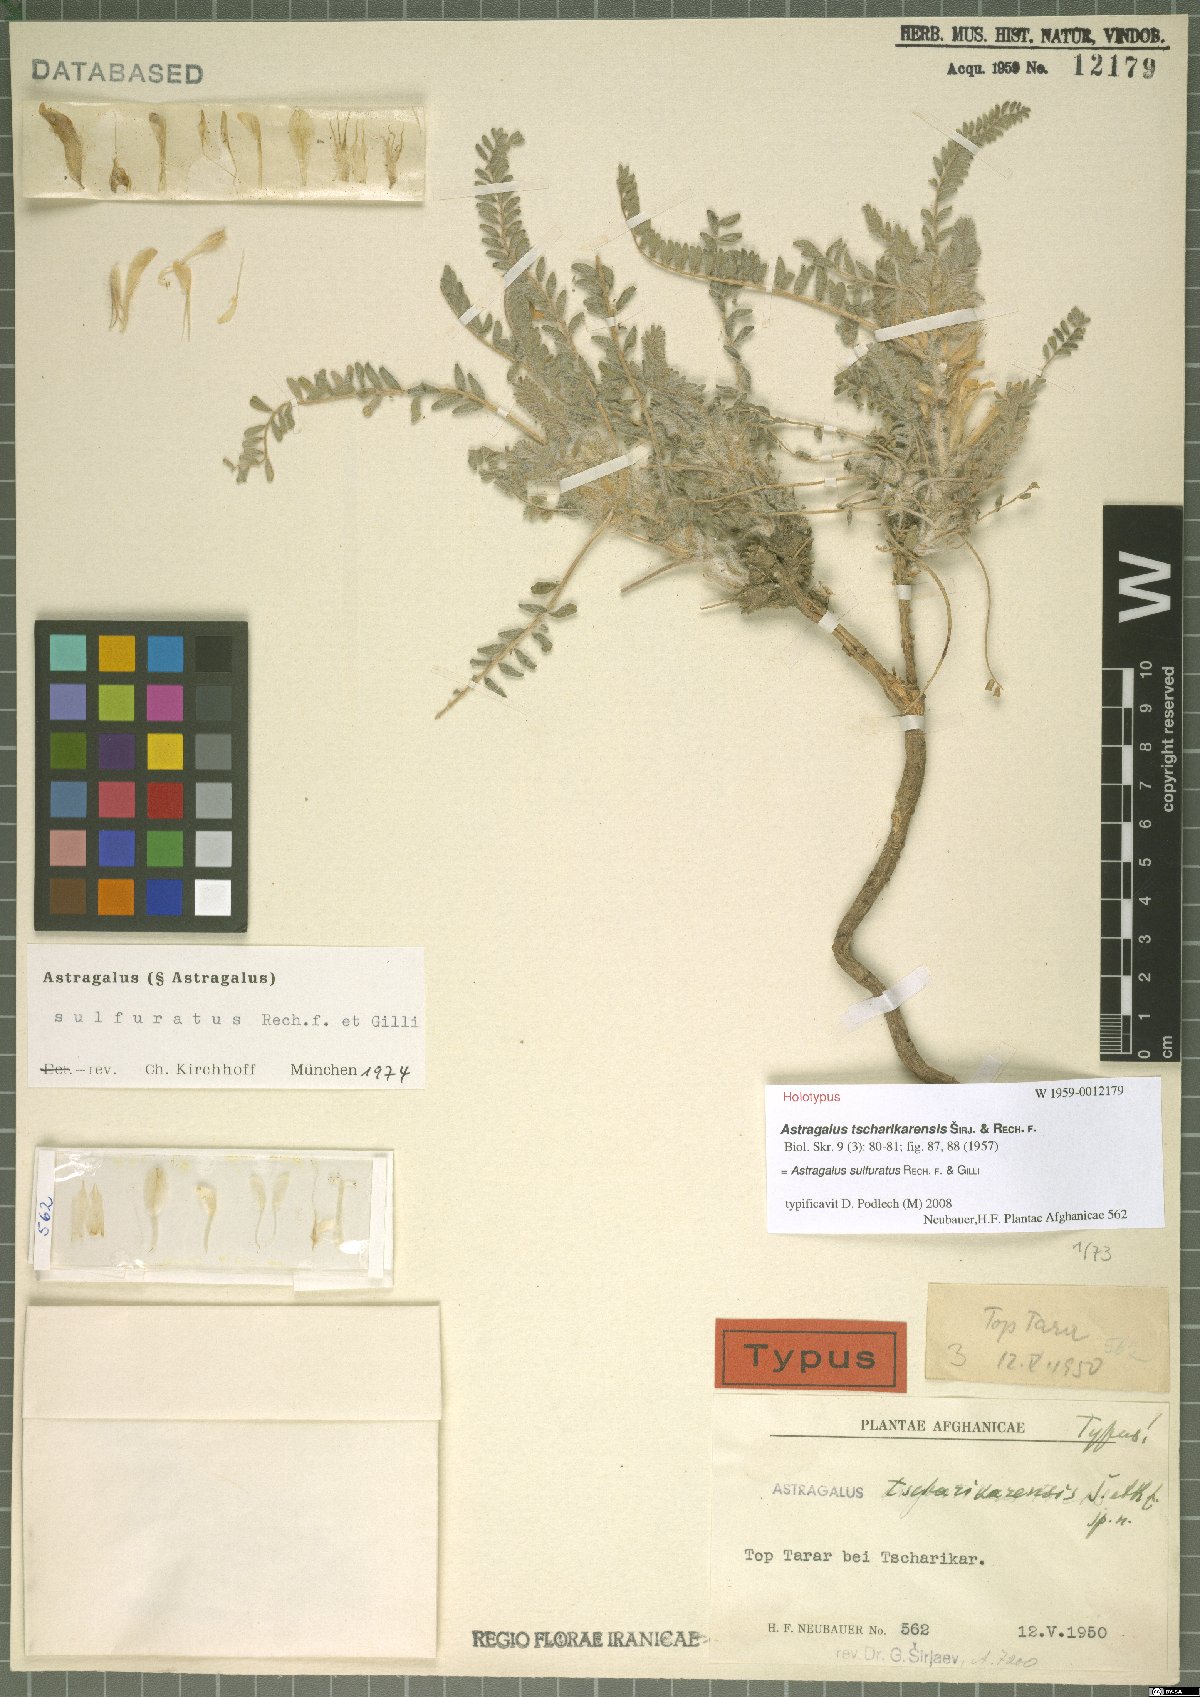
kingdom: Plantae
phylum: Tracheophyta
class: Magnoliopsida
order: Fabales
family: Fabaceae
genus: Astragalus
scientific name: Astragalus sulfuratus
